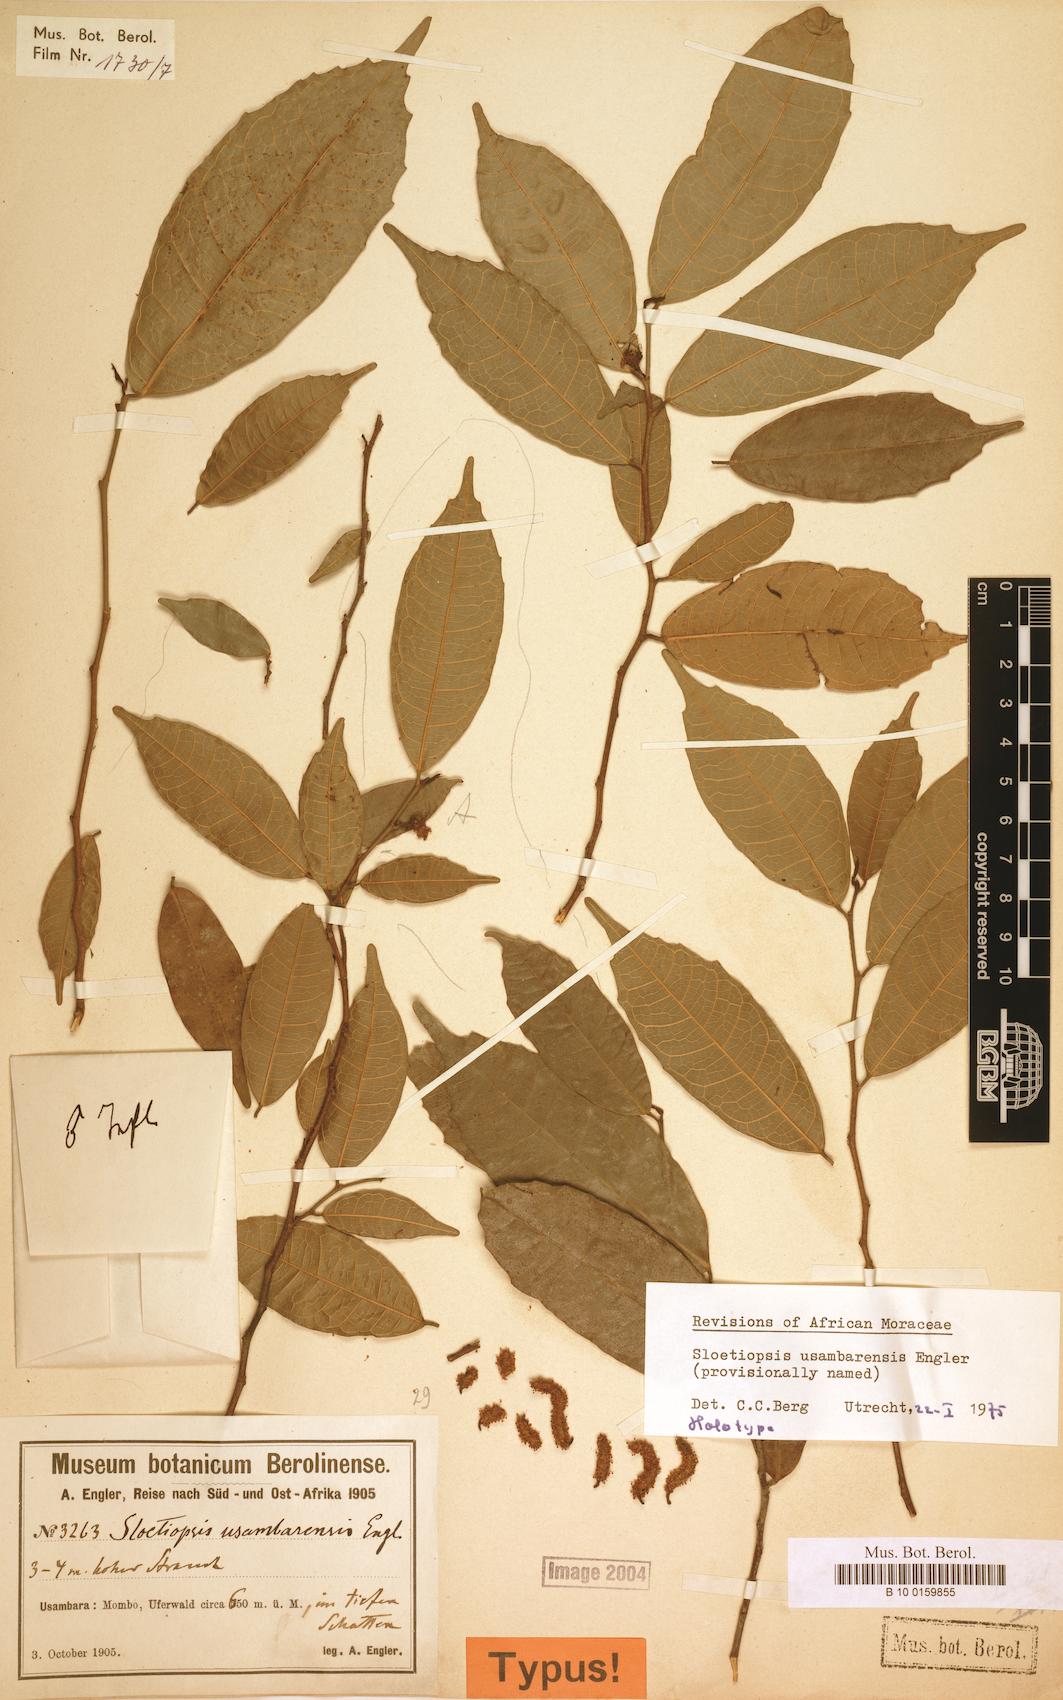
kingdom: Plantae
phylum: Tracheophyta
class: Magnoliopsida
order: Rosales
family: Moraceae
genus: Sloetiopsis
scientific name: Sloetiopsis usambarensis
